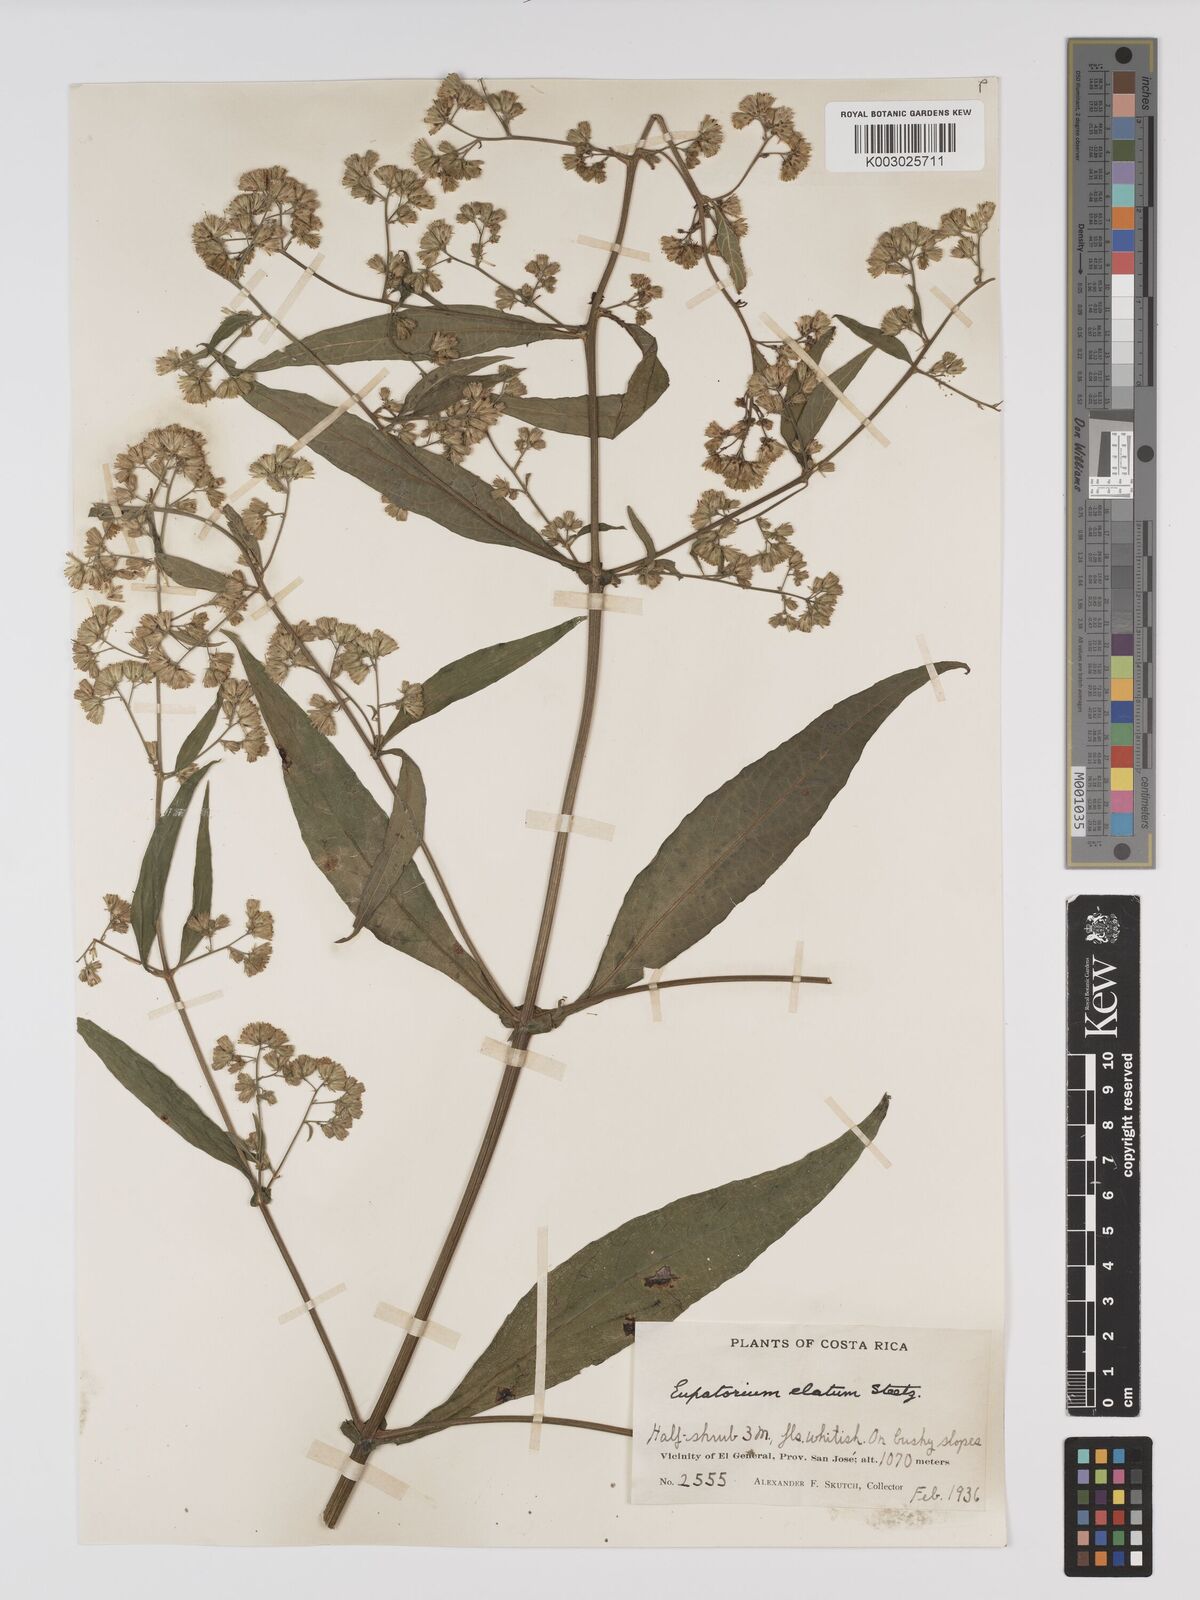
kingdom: Plantae
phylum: Tracheophyta
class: Magnoliopsida
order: Asterales
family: Asteraceae
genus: Ayapana
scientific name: Ayapana elata
